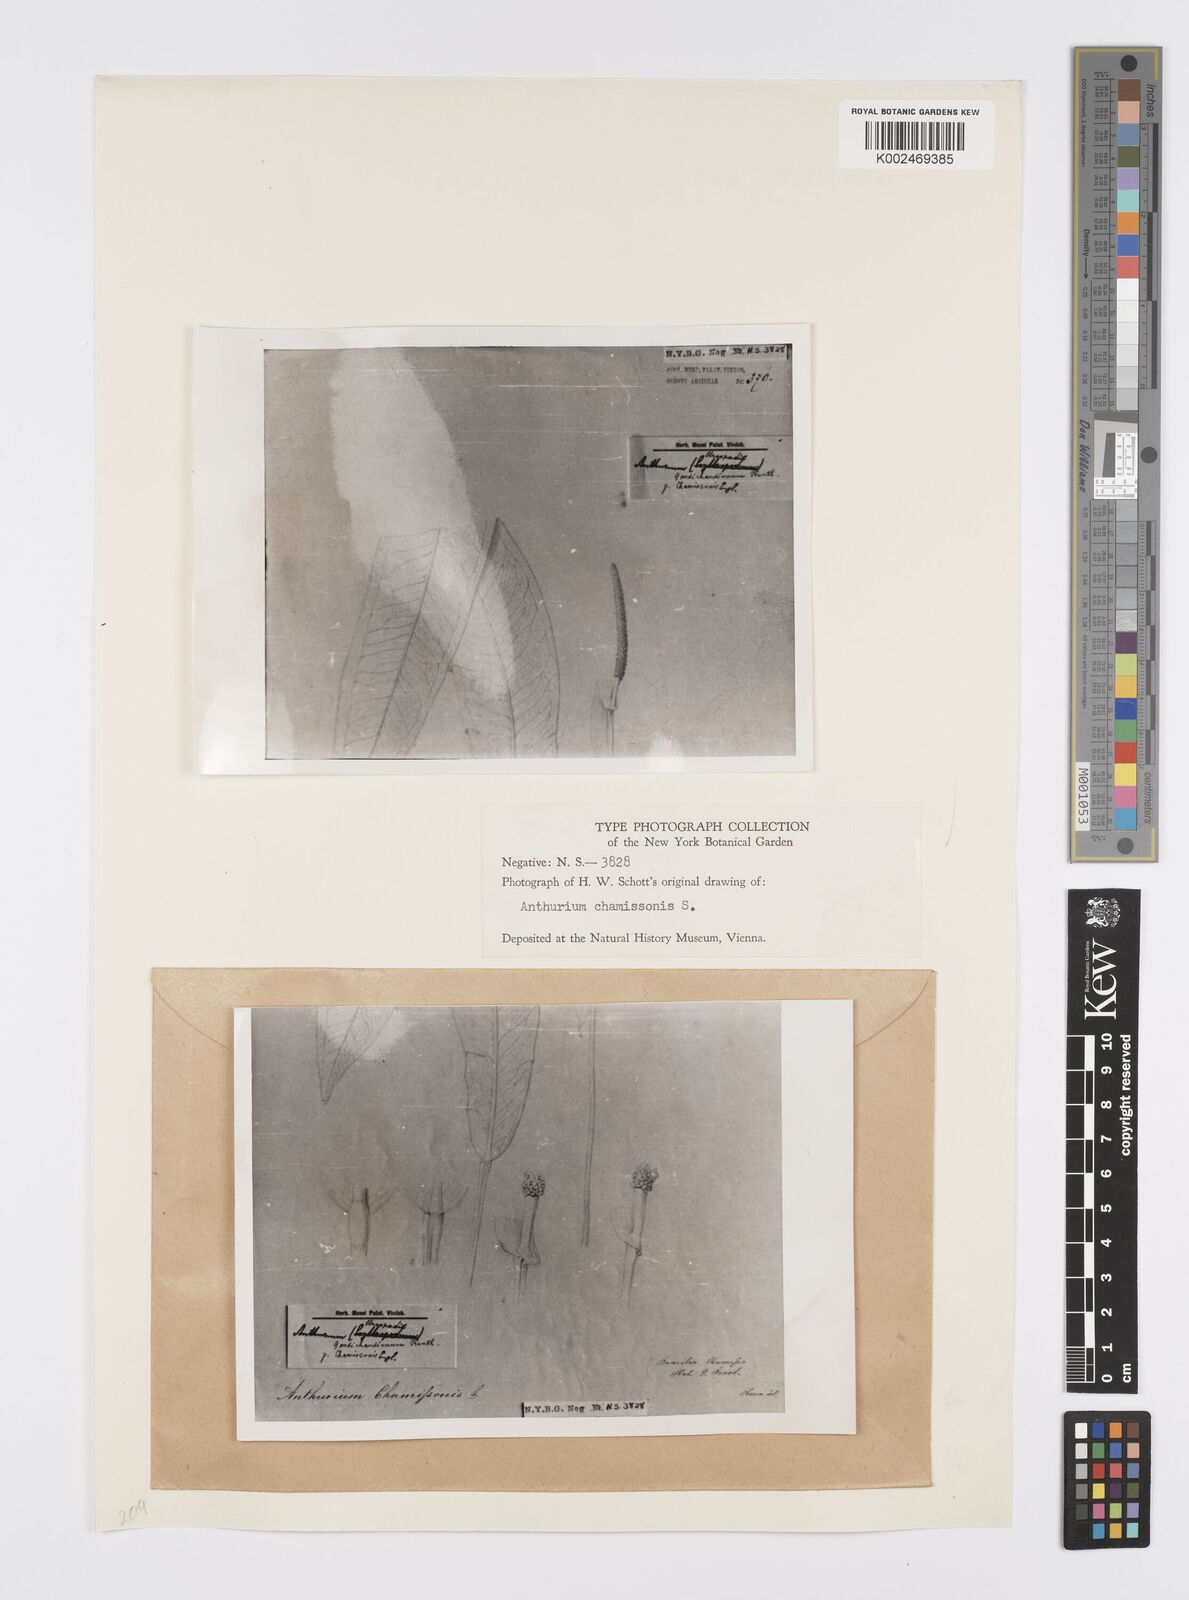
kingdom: Plantae
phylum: Tracheophyta
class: Liliopsida
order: Alismatales
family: Araceae
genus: Anthurium
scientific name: Anthurium gaudichaudianum
